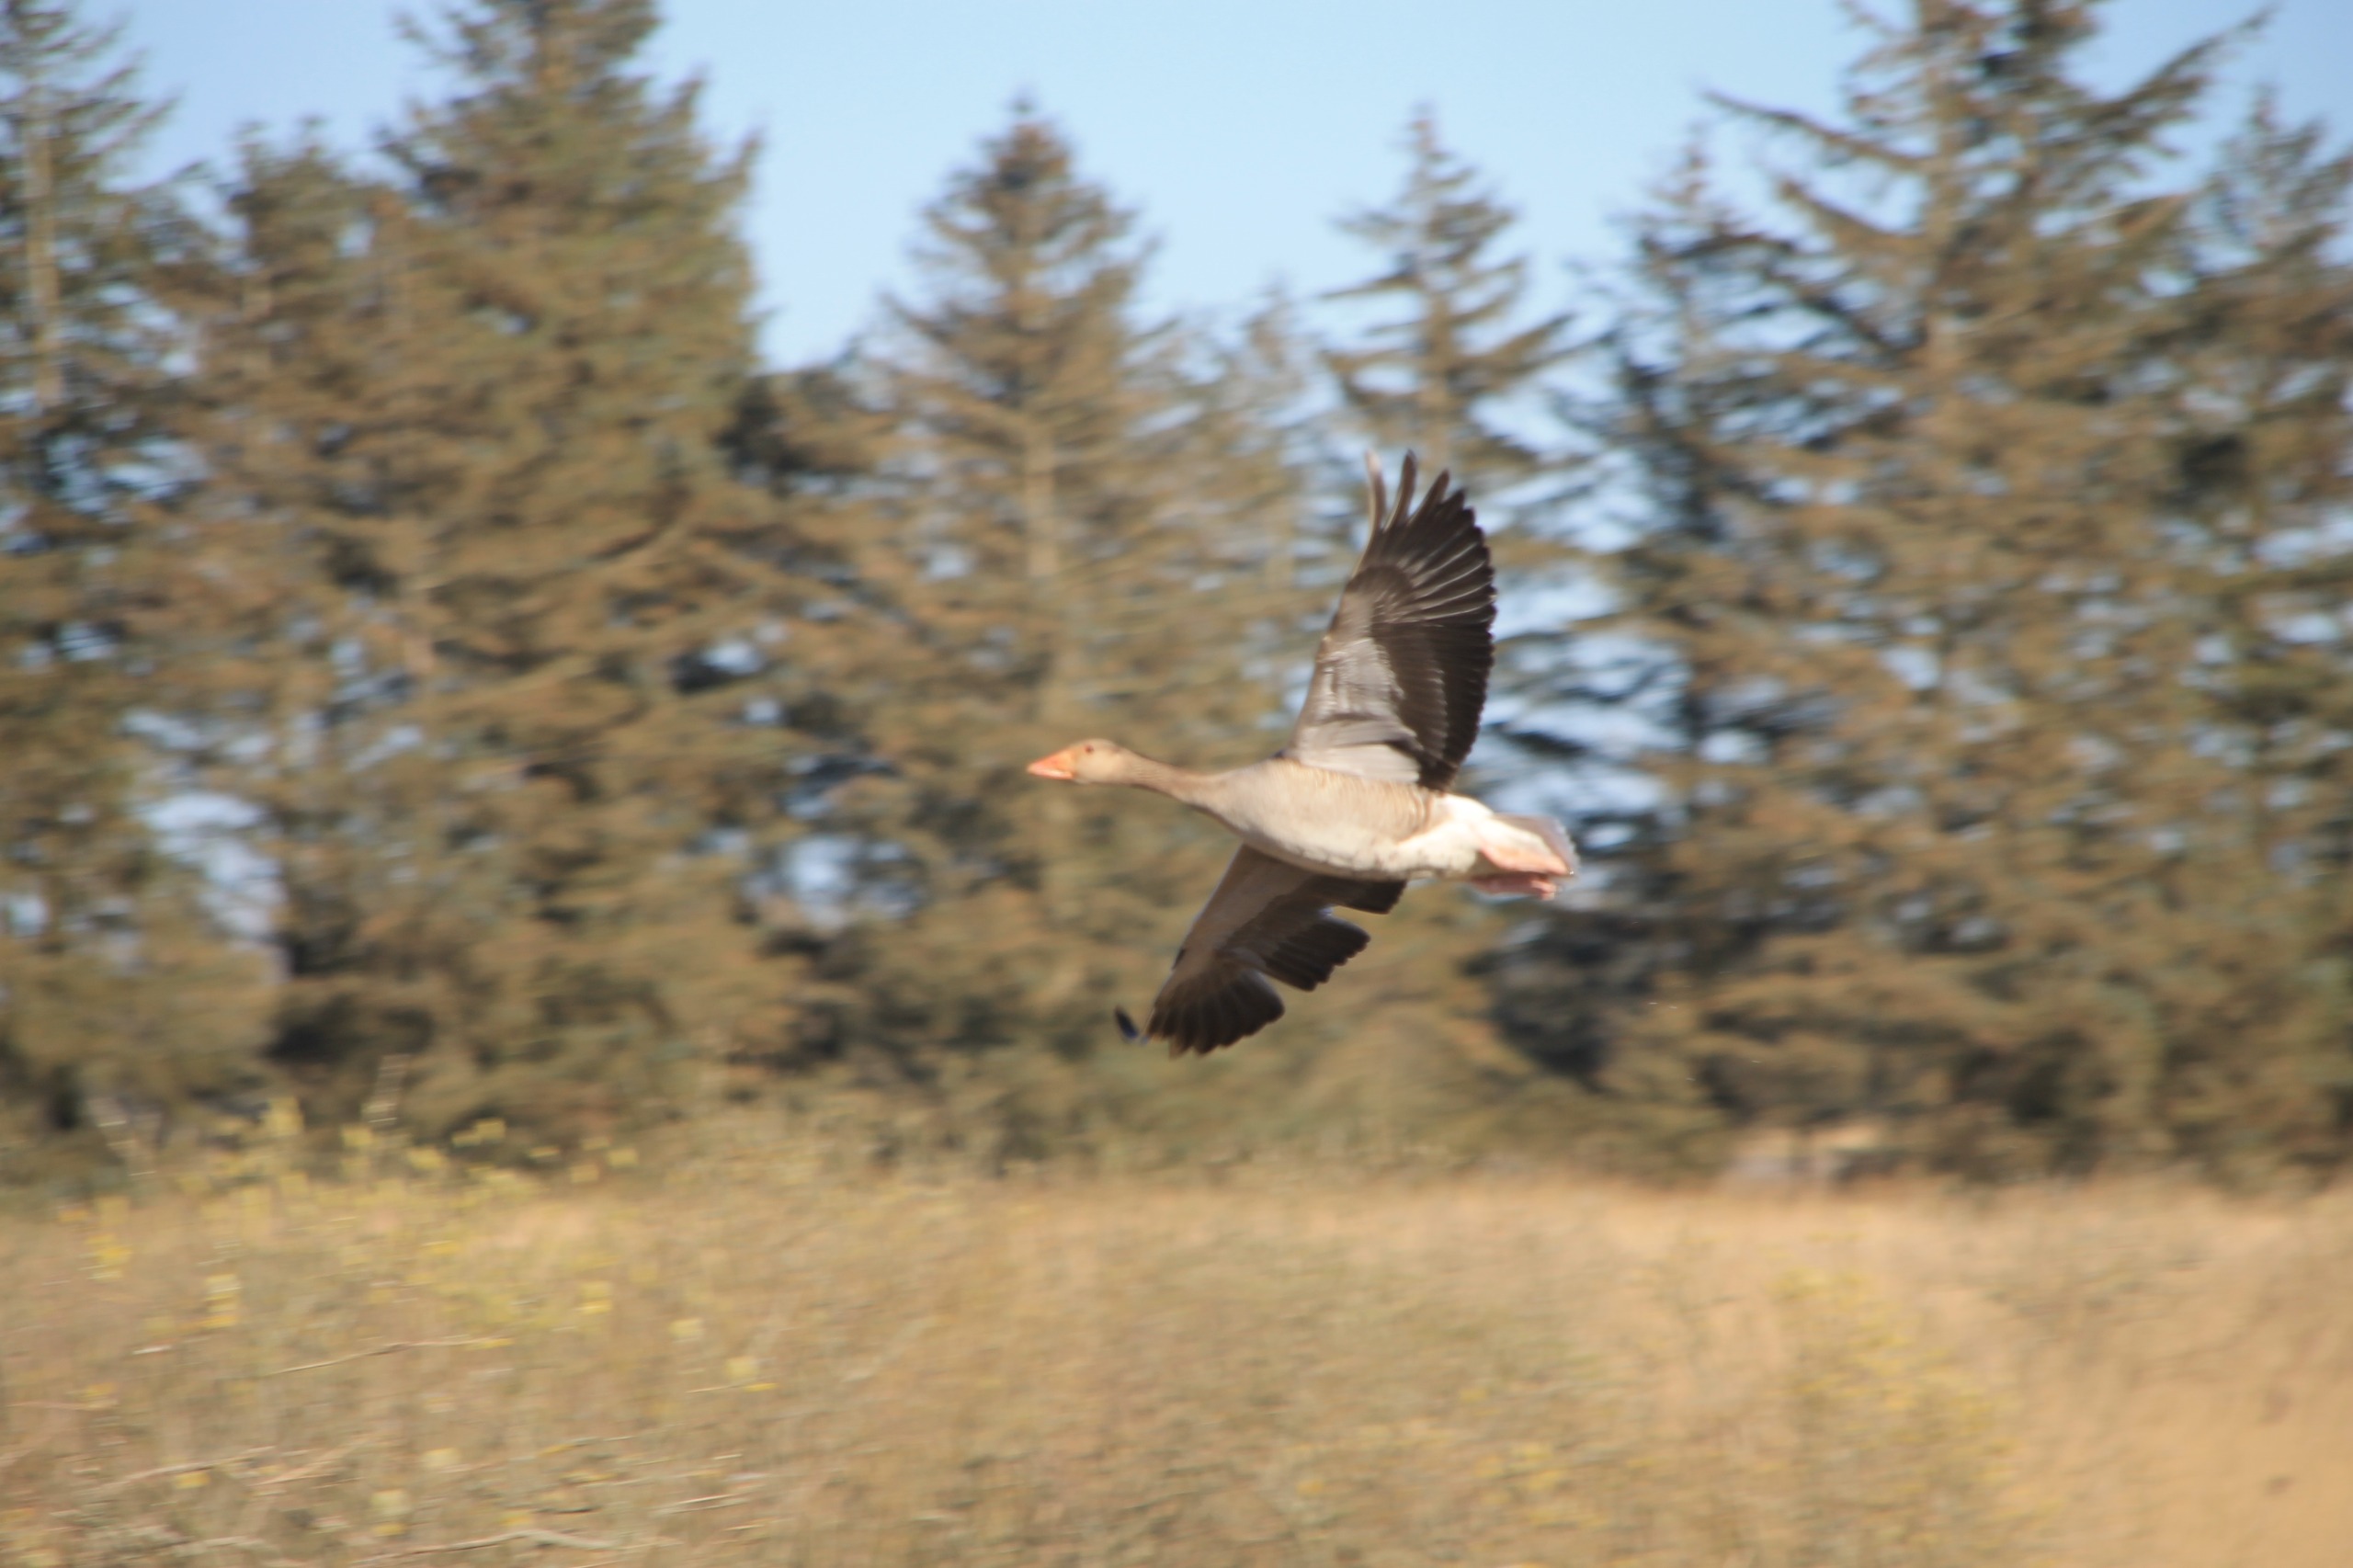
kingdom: Animalia
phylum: Chordata
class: Aves
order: Anseriformes
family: Anatidae
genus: Anser
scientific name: Anser anser
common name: Grågås
